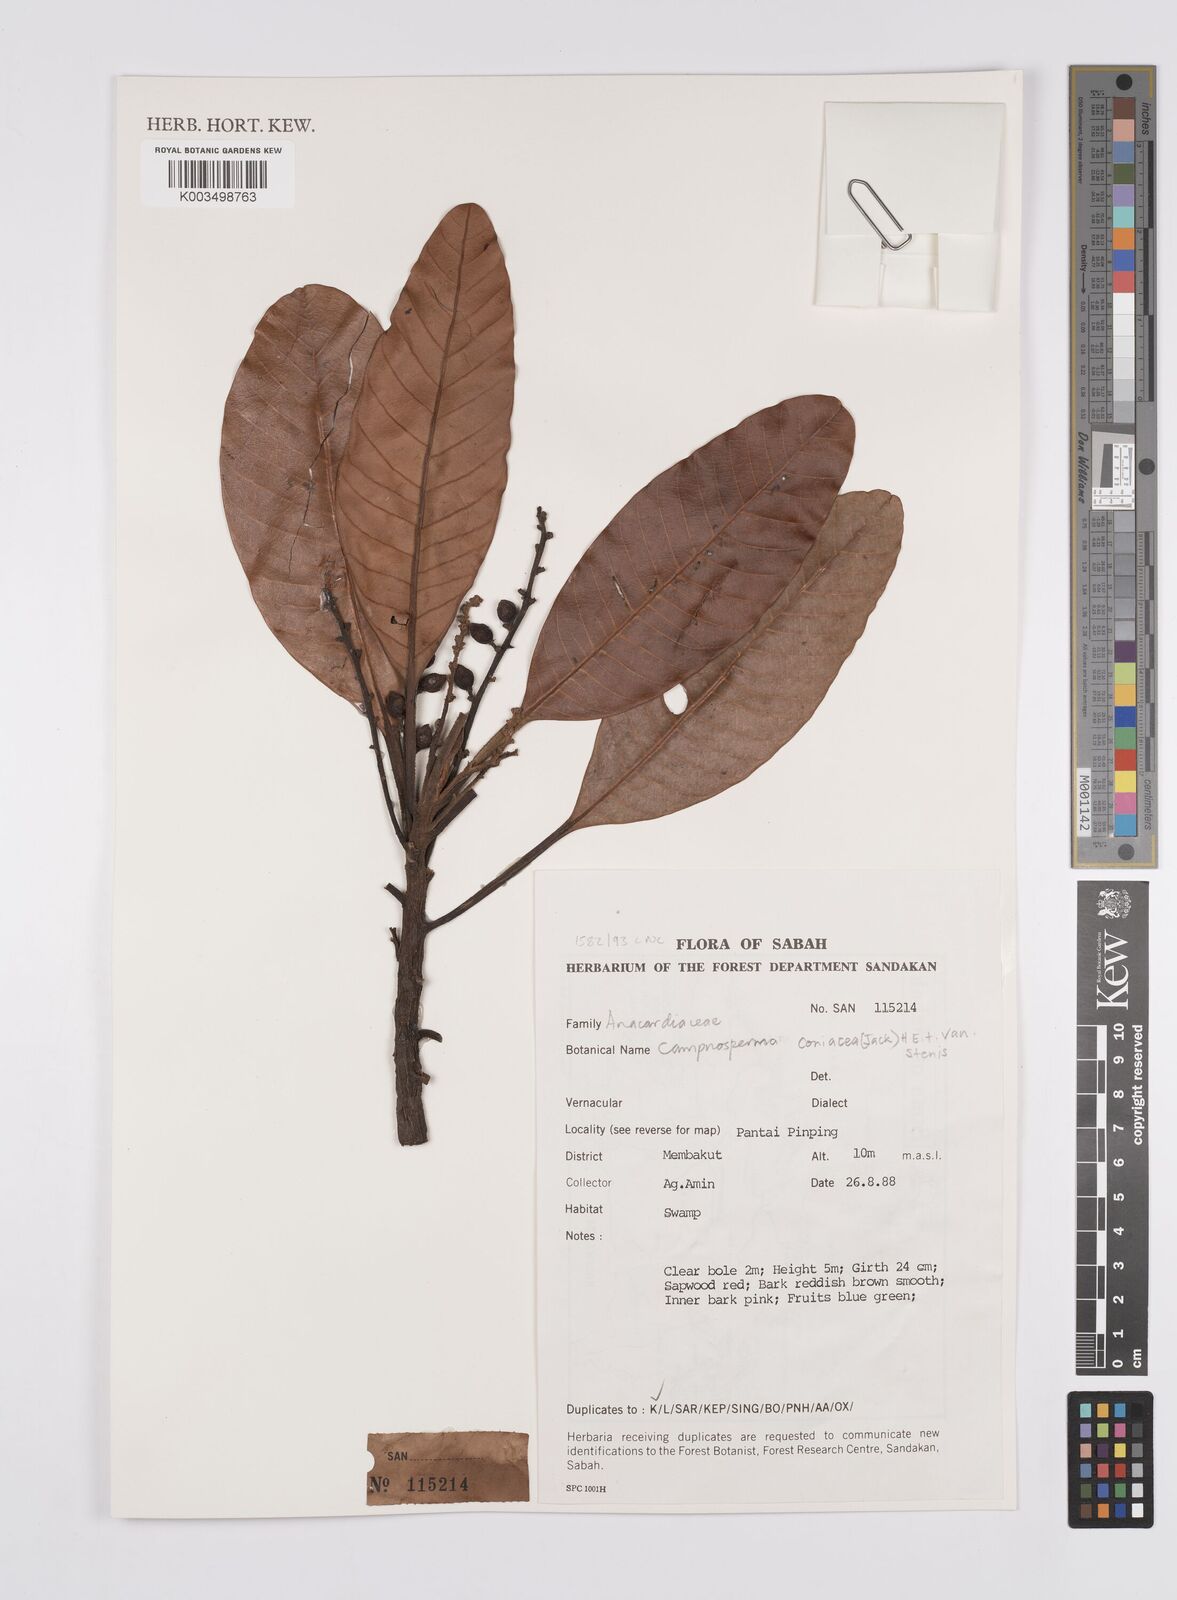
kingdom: Plantae
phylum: Tracheophyta
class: Magnoliopsida
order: Sapindales
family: Anacardiaceae
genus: Campnosperma
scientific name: Campnosperma coriaceum
